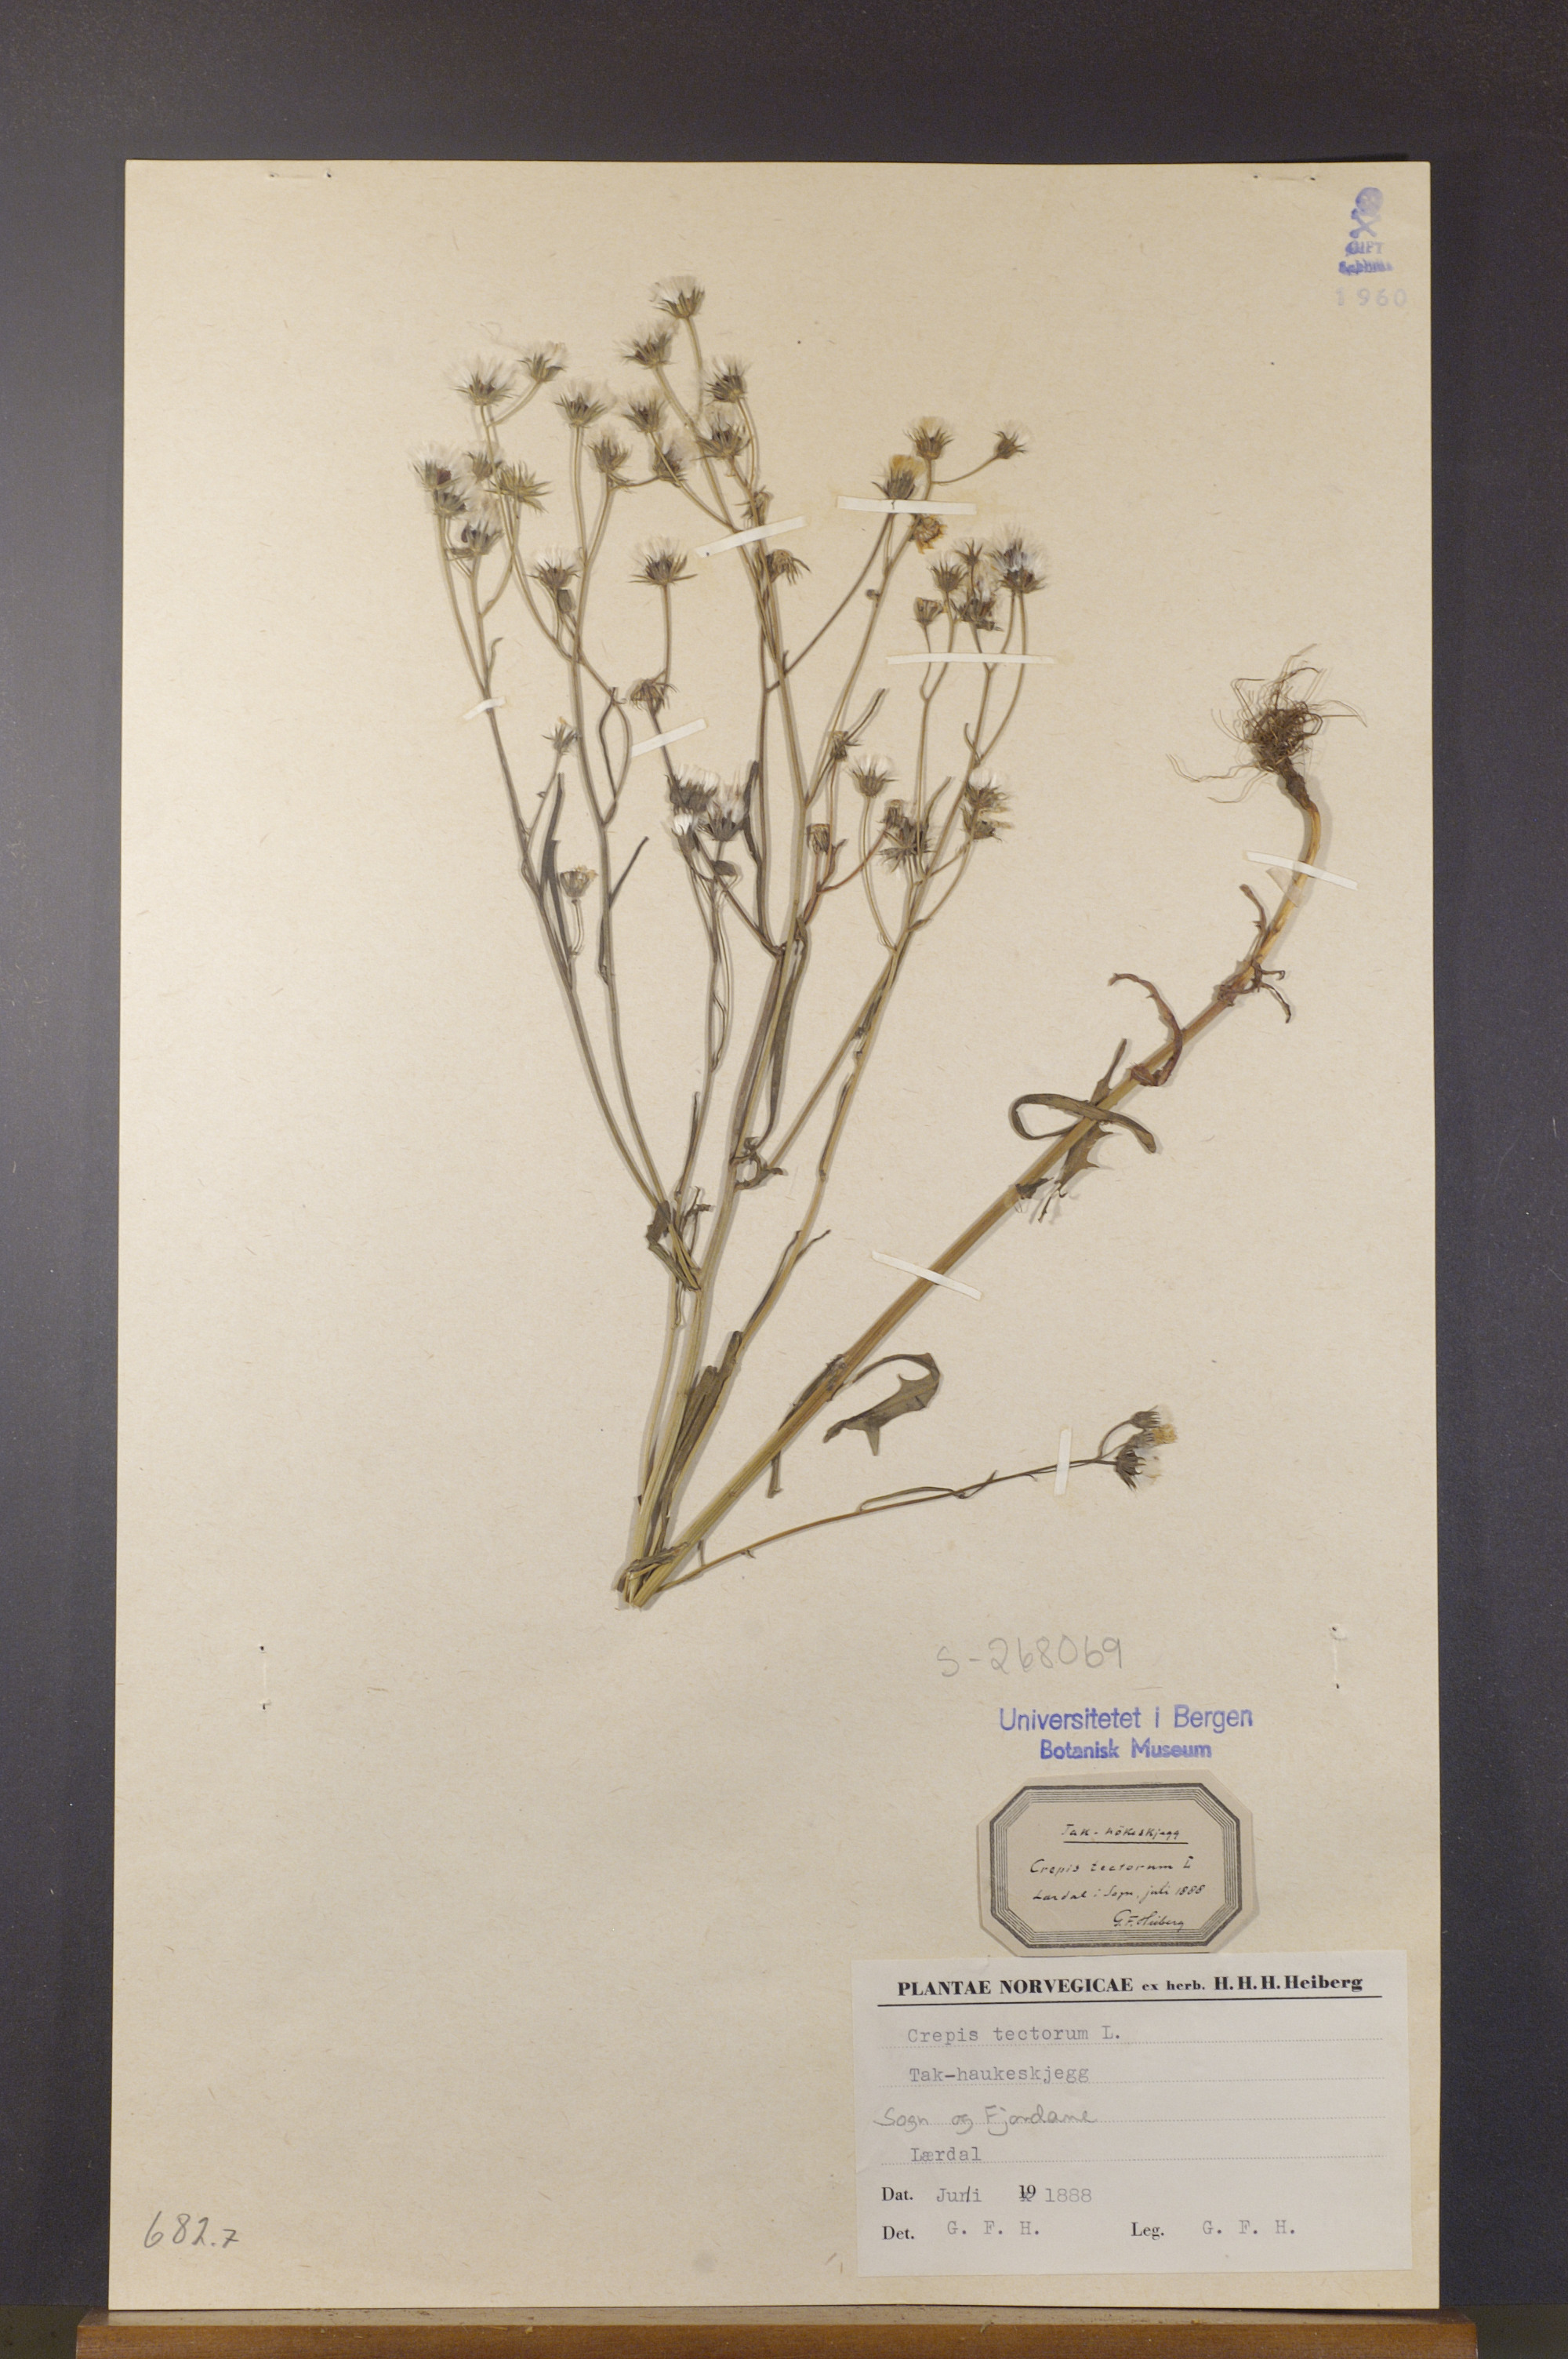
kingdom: Plantae
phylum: Tracheophyta
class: Magnoliopsida
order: Asterales
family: Asteraceae
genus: Crepis
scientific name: Crepis tectorum
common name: Narrow-leaved hawk's-beard
